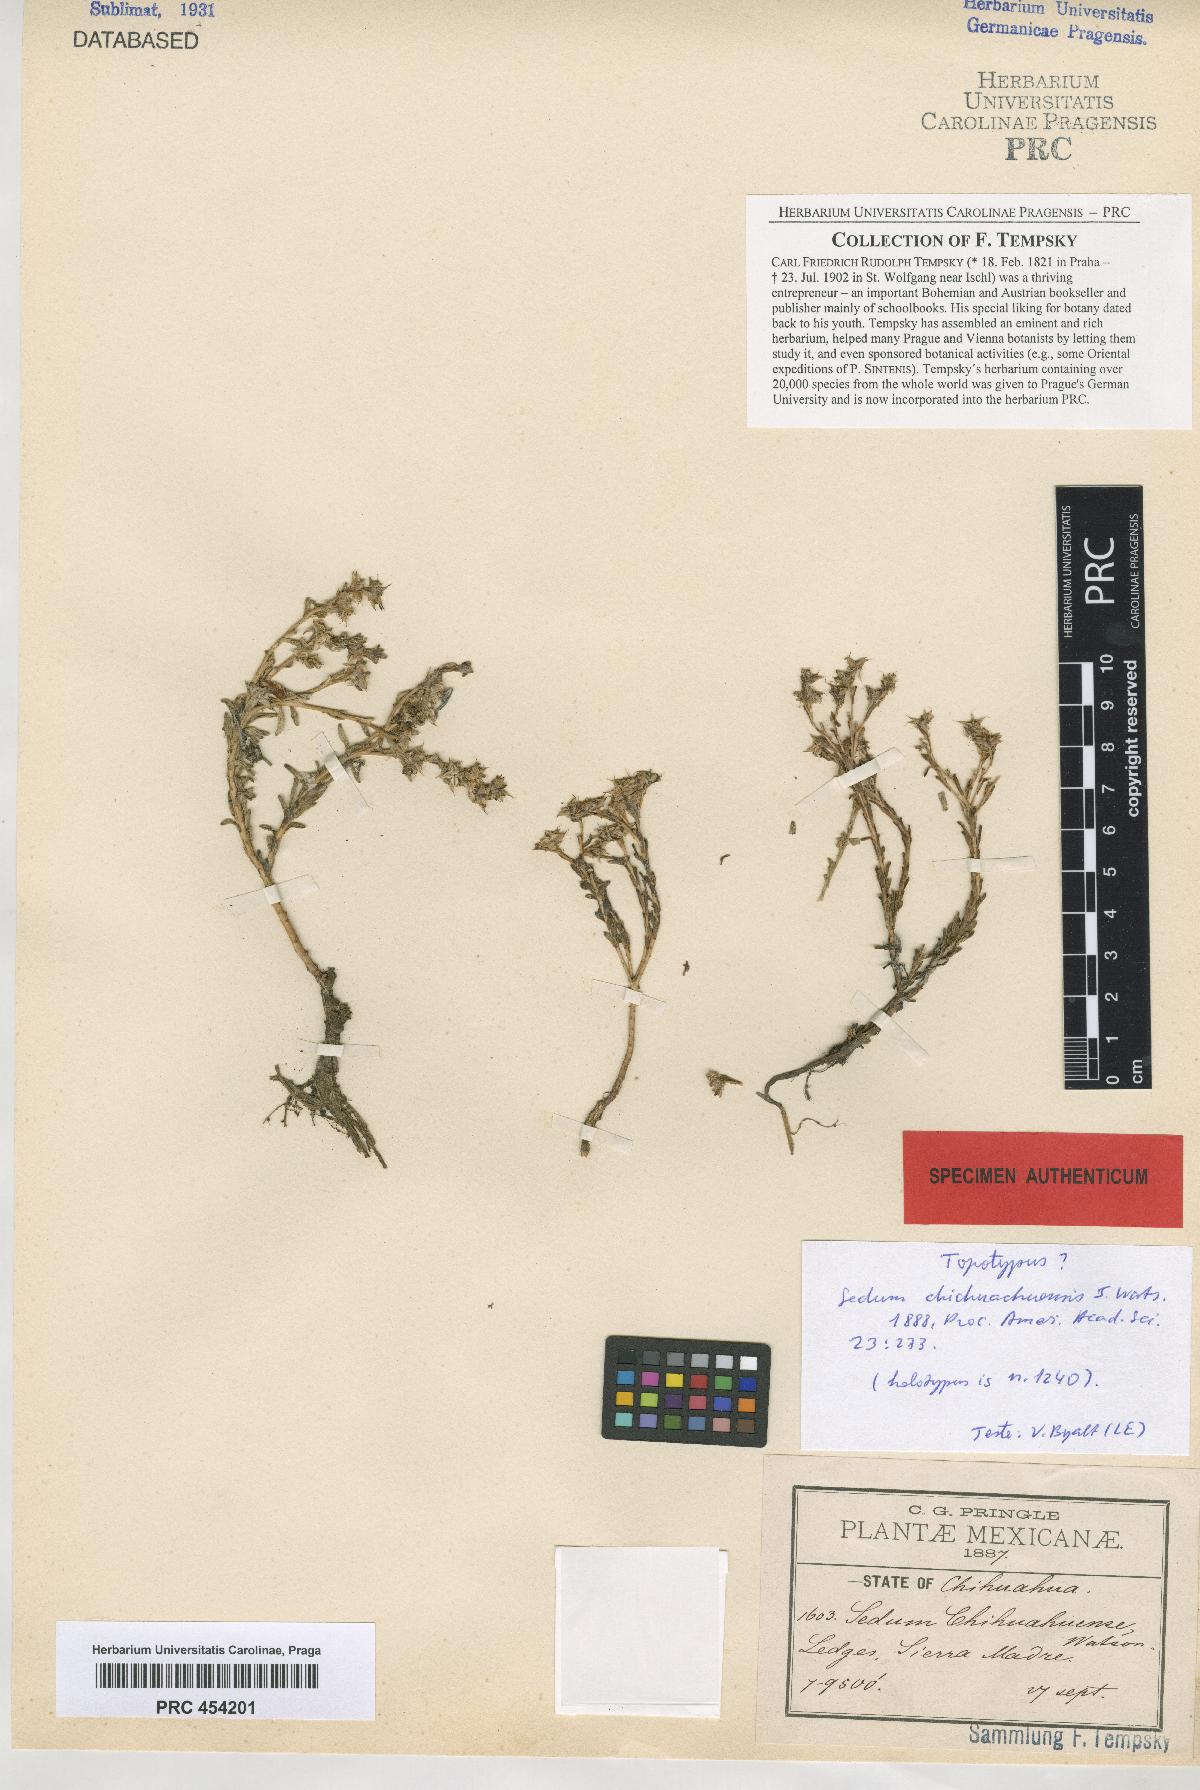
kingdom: Plantae
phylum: Tracheophyta
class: Magnoliopsida
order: Saxifragales
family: Crassulaceae
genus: Sedum
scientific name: Sedum chihuahuense
